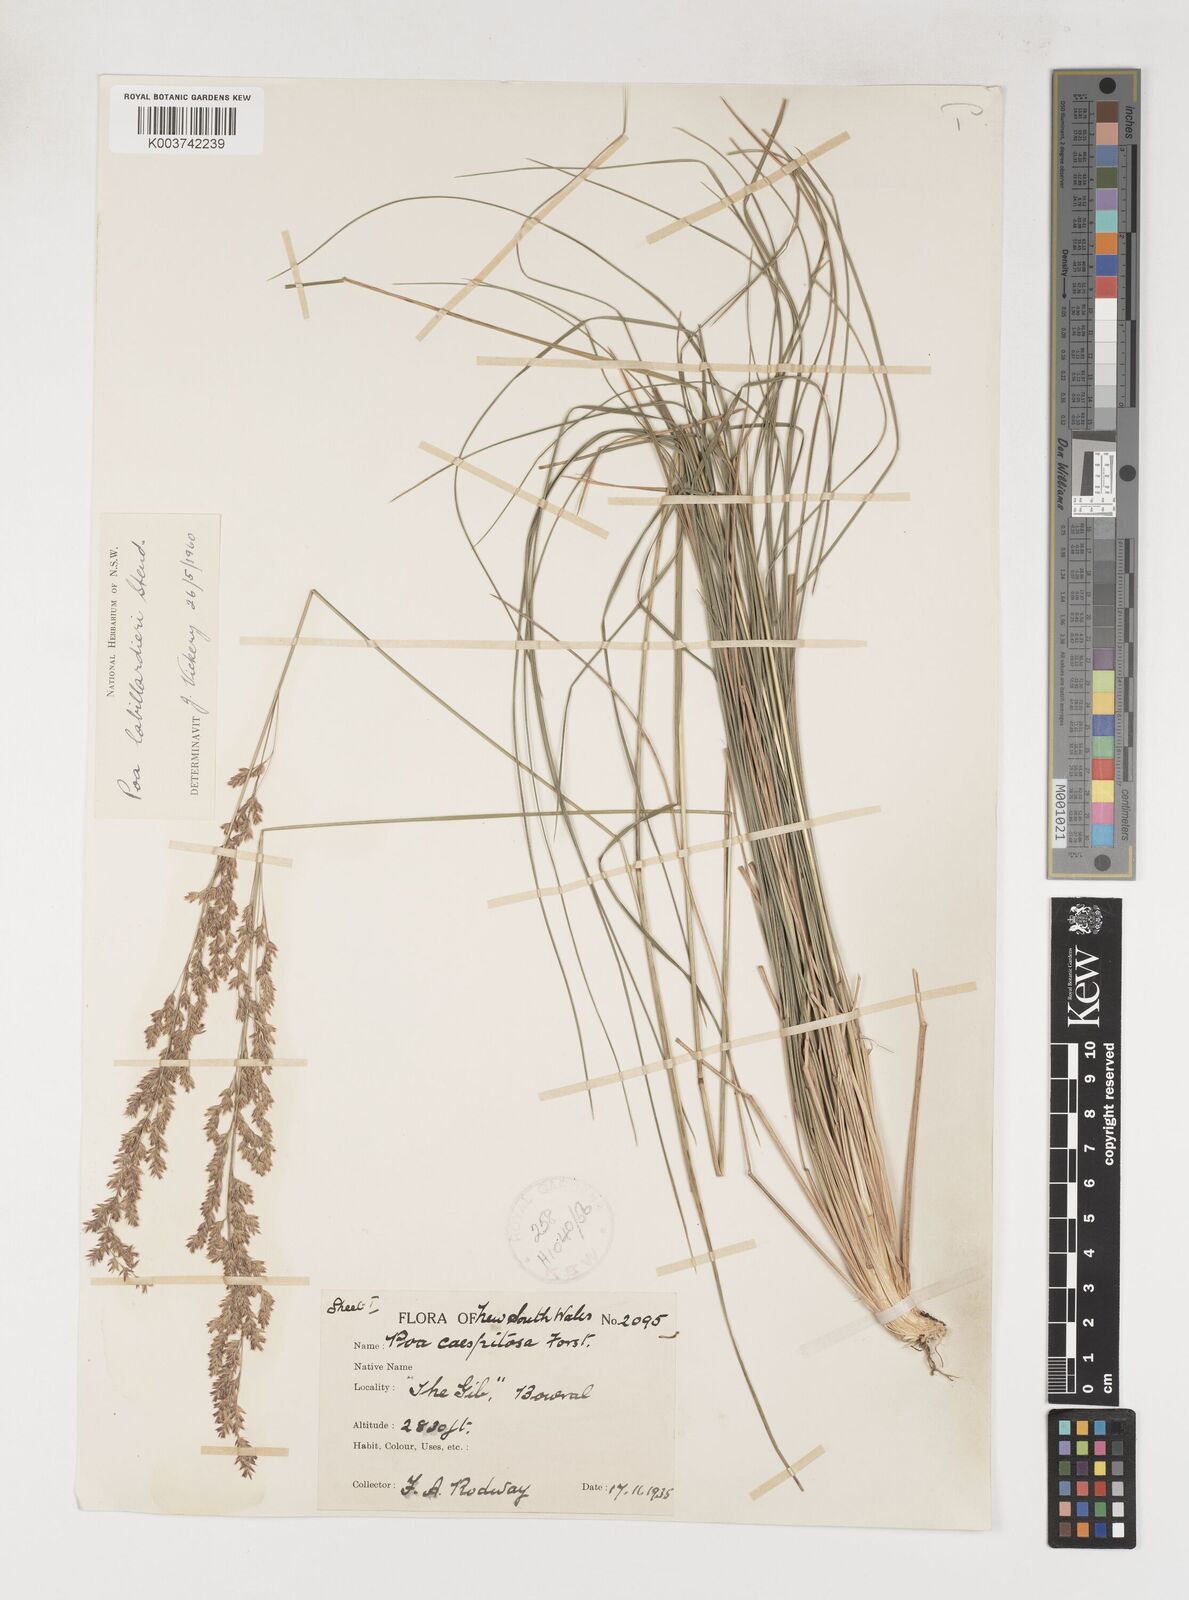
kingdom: Plantae
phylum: Tracheophyta
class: Liliopsida
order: Poales
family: Poaceae
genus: Poa
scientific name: Poa labillardierei
